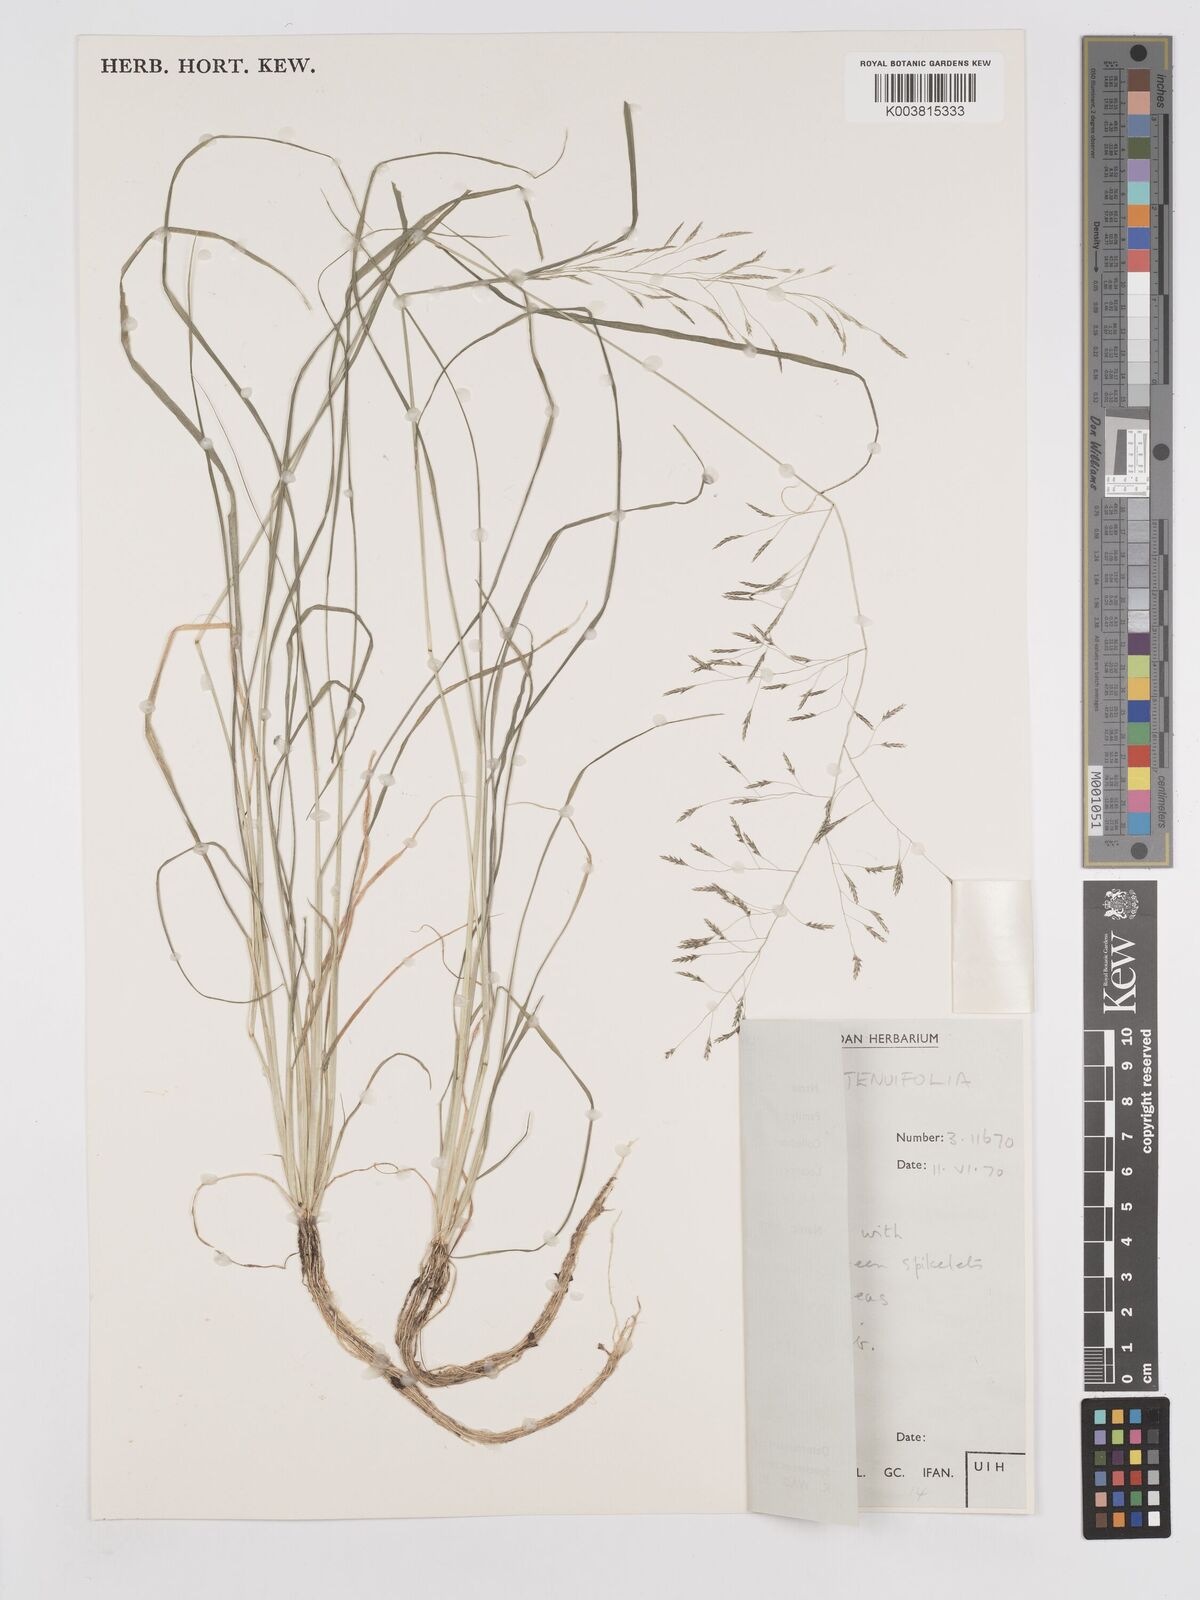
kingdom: Plantae
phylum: Tracheophyta
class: Liliopsida
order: Poales
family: Poaceae
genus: Eragrostis
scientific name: Eragrostis tenuifolia
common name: Elastic grass
